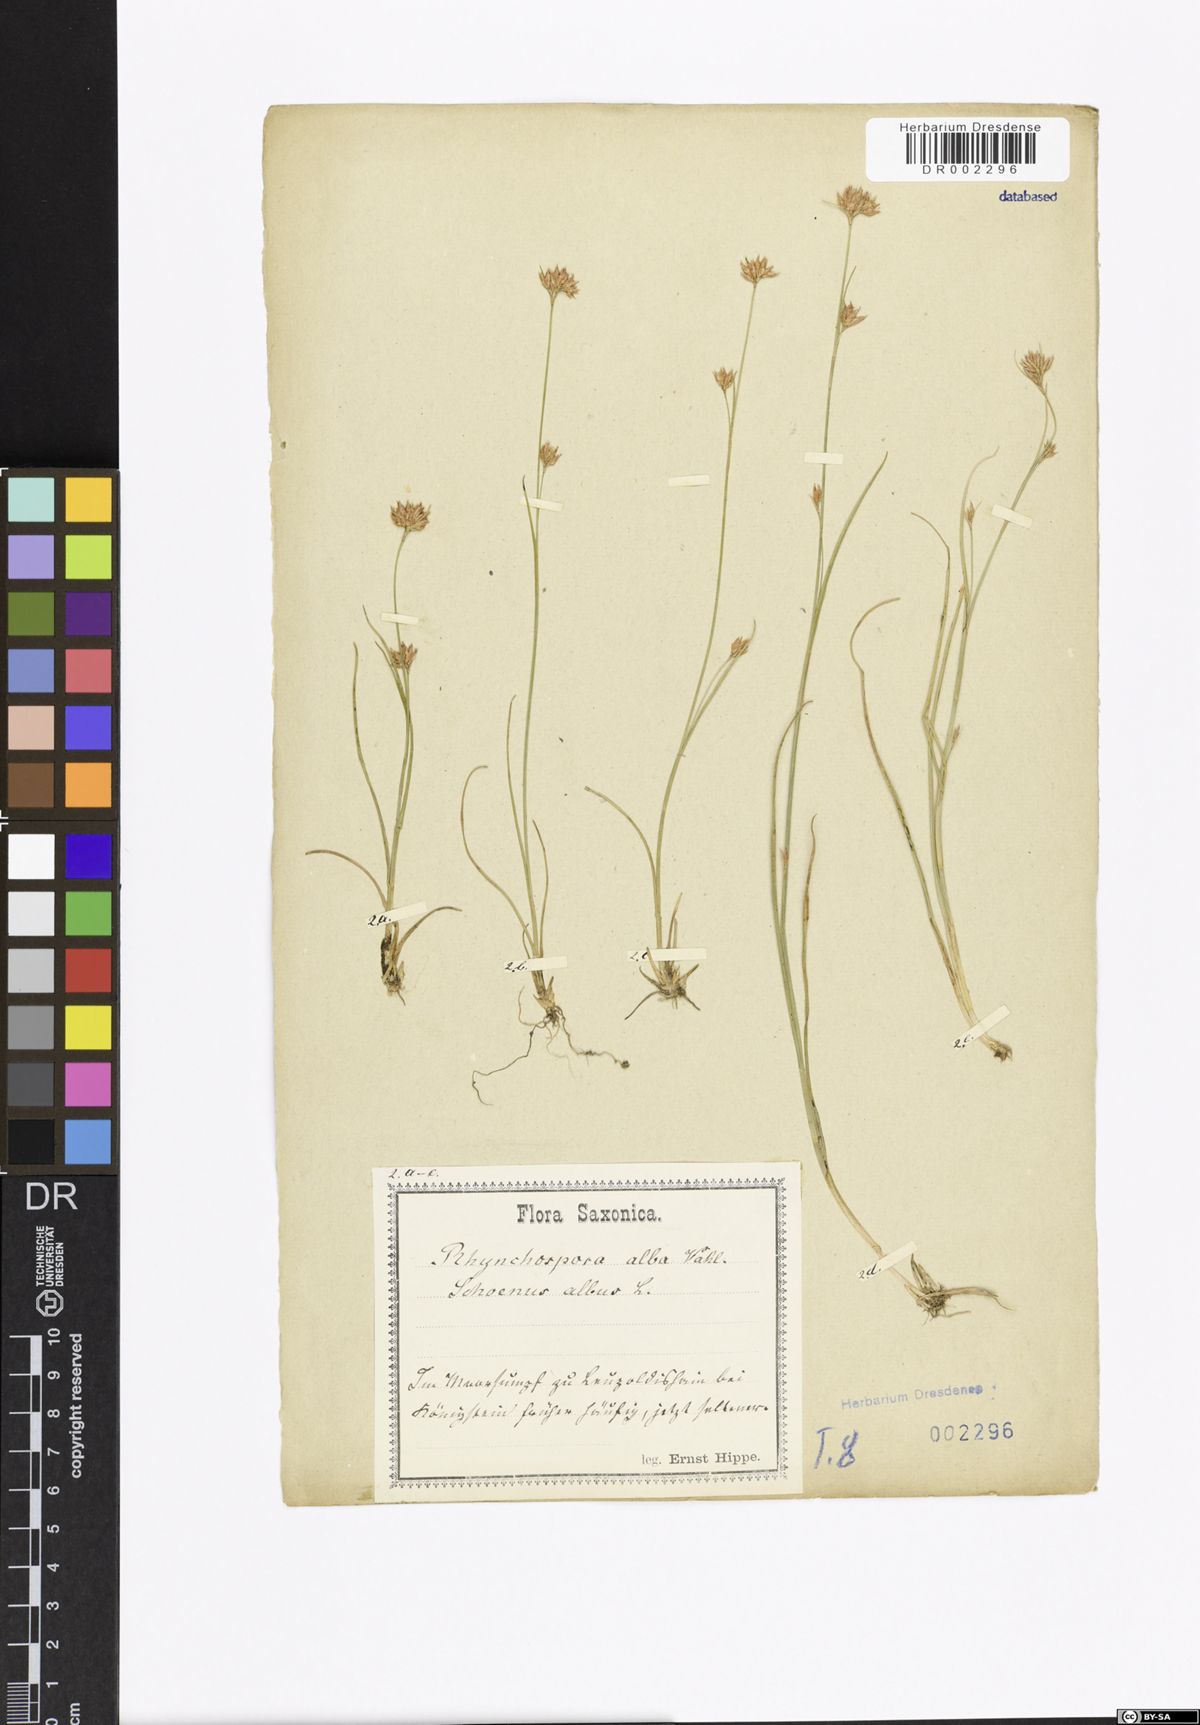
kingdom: Plantae
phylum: Tracheophyta
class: Liliopsida
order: Poales
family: Cyperaceae
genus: Rhynchospora
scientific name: Rhynchospora alba
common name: White beak-sedge
